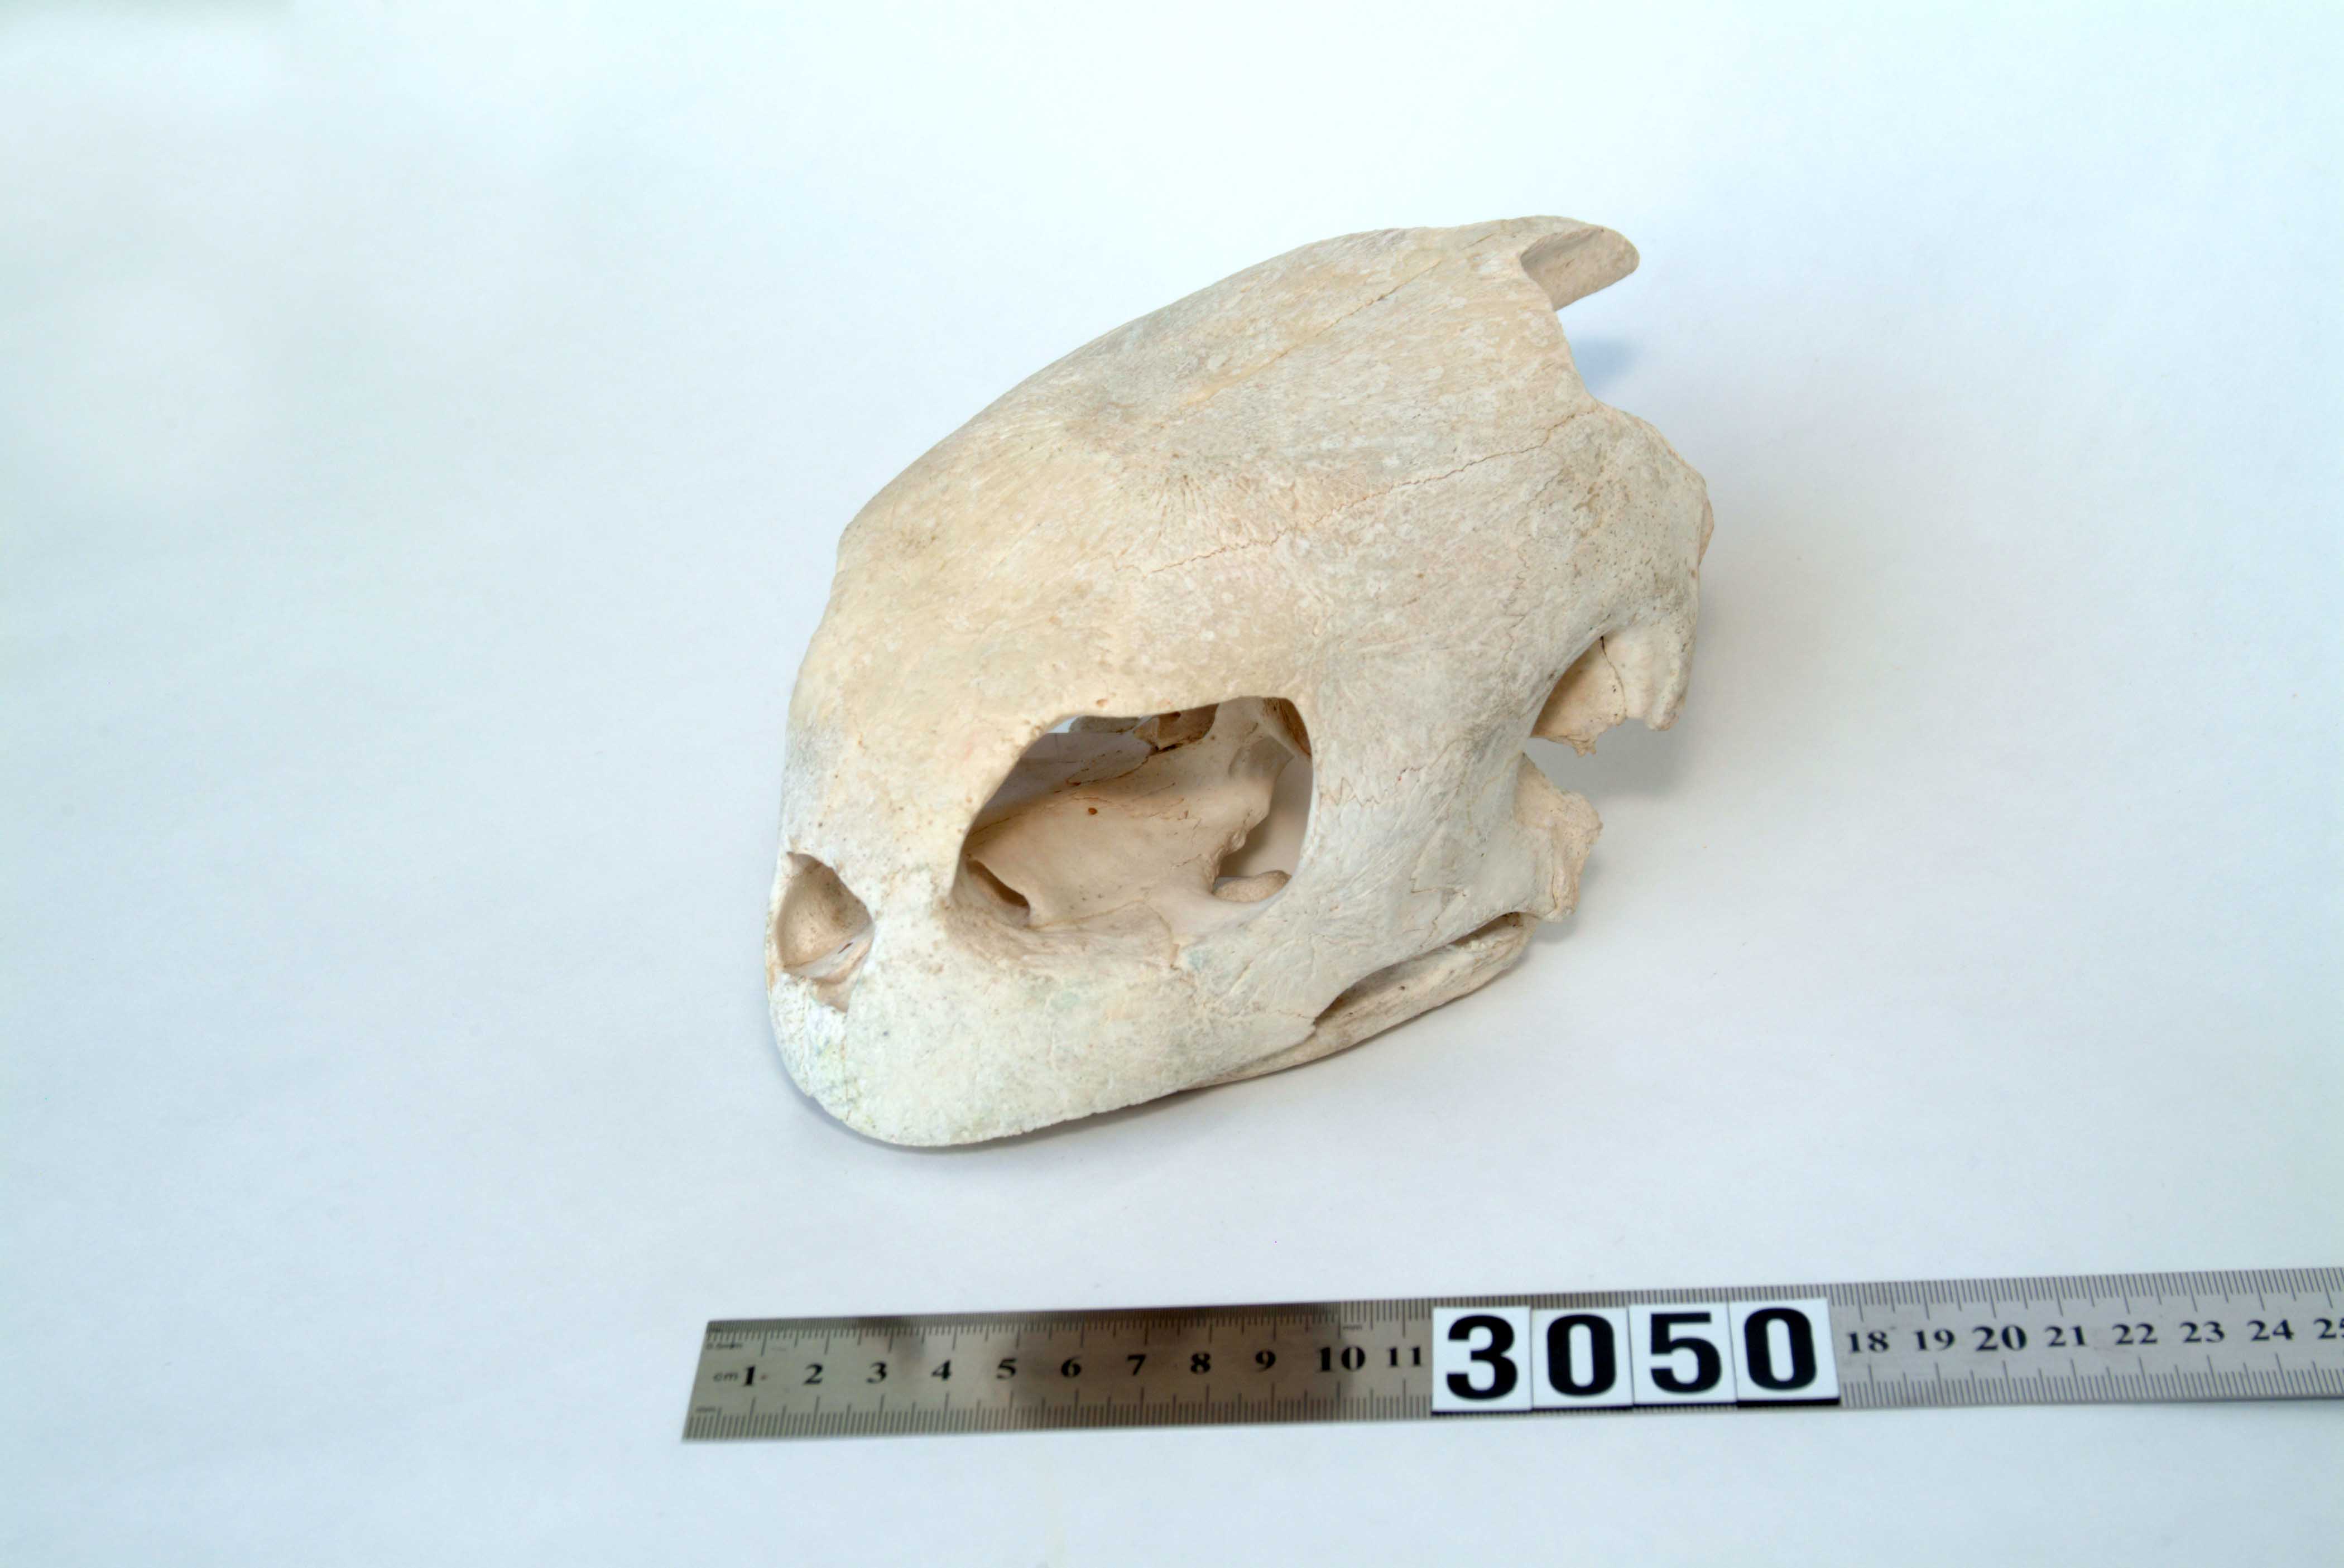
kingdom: Animalia
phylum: Chordata
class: Testudines
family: Cheloniidae
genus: Chelonia
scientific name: Chelonia mydas
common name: Green turtle
